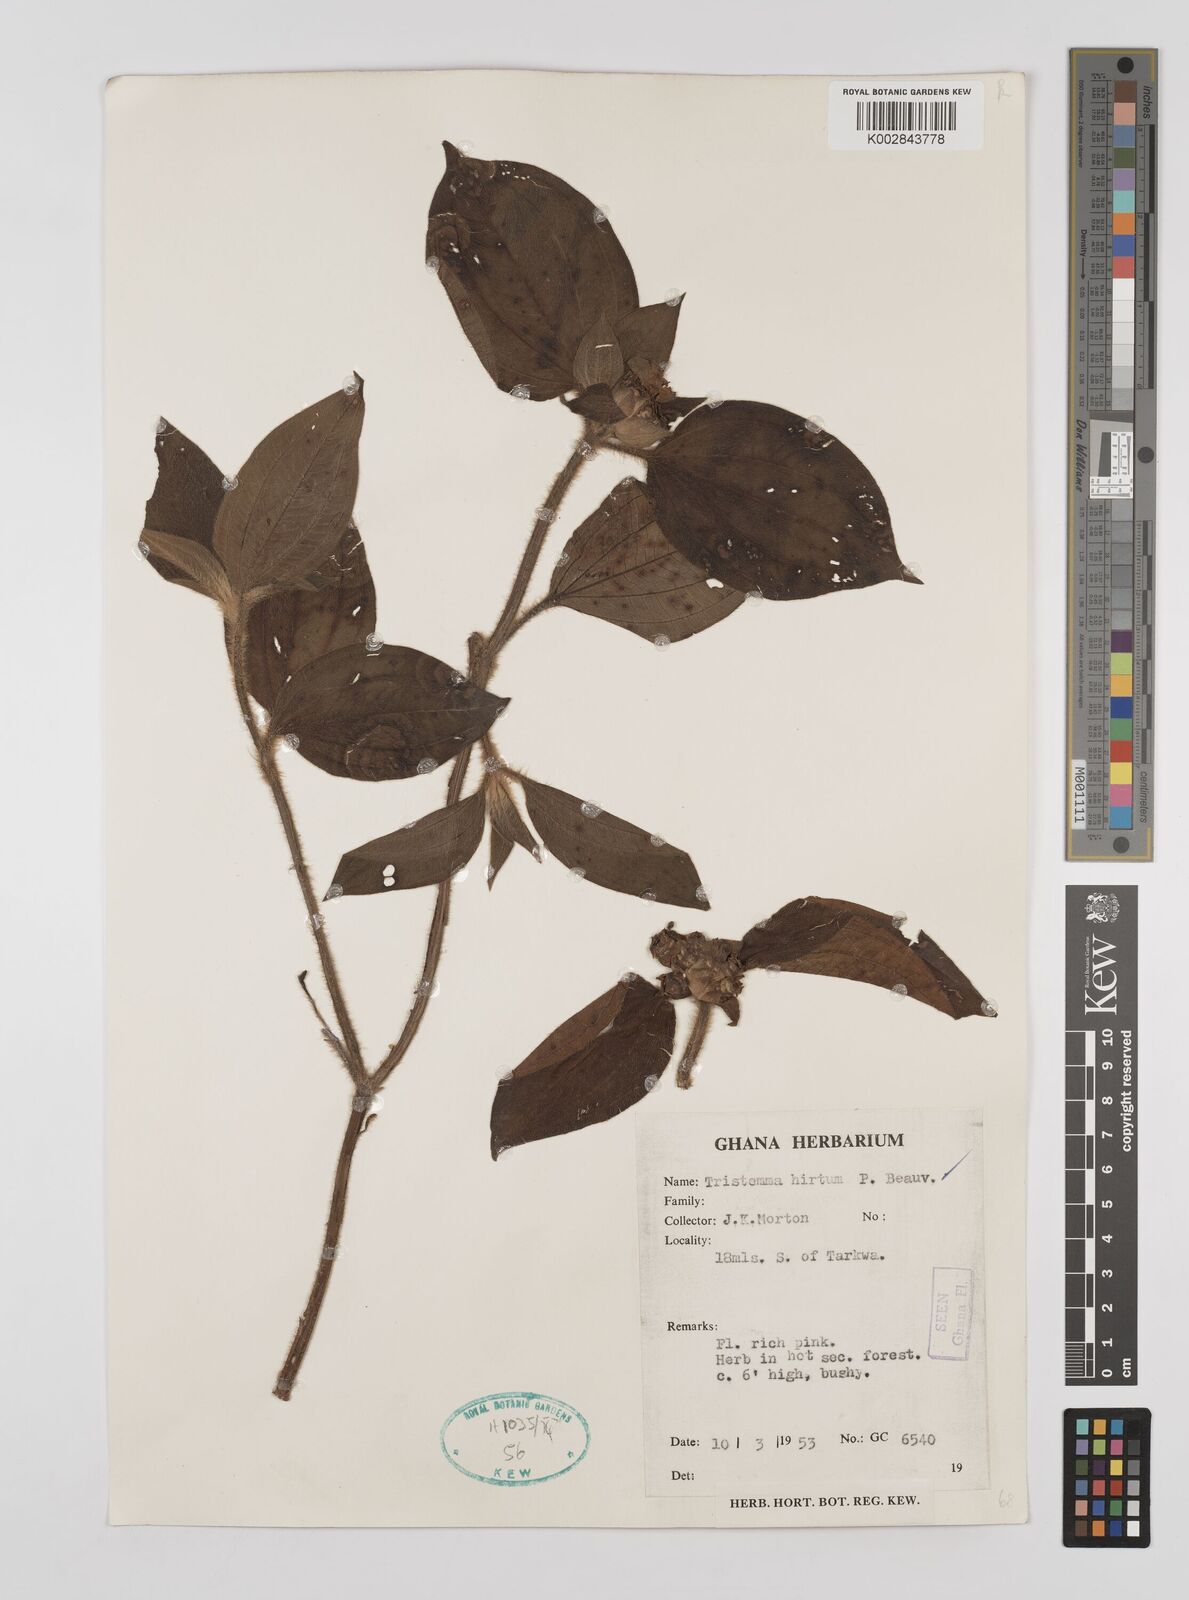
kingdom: Plantae
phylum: Tracheophyta
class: Magnoliopsida
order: Myrtales
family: Melastomataceae
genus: Tristemma
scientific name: Tristemma
